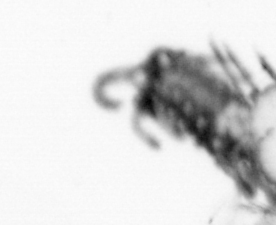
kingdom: Animalia
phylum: Annelida
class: Polychaeta
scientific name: Polychaeta
